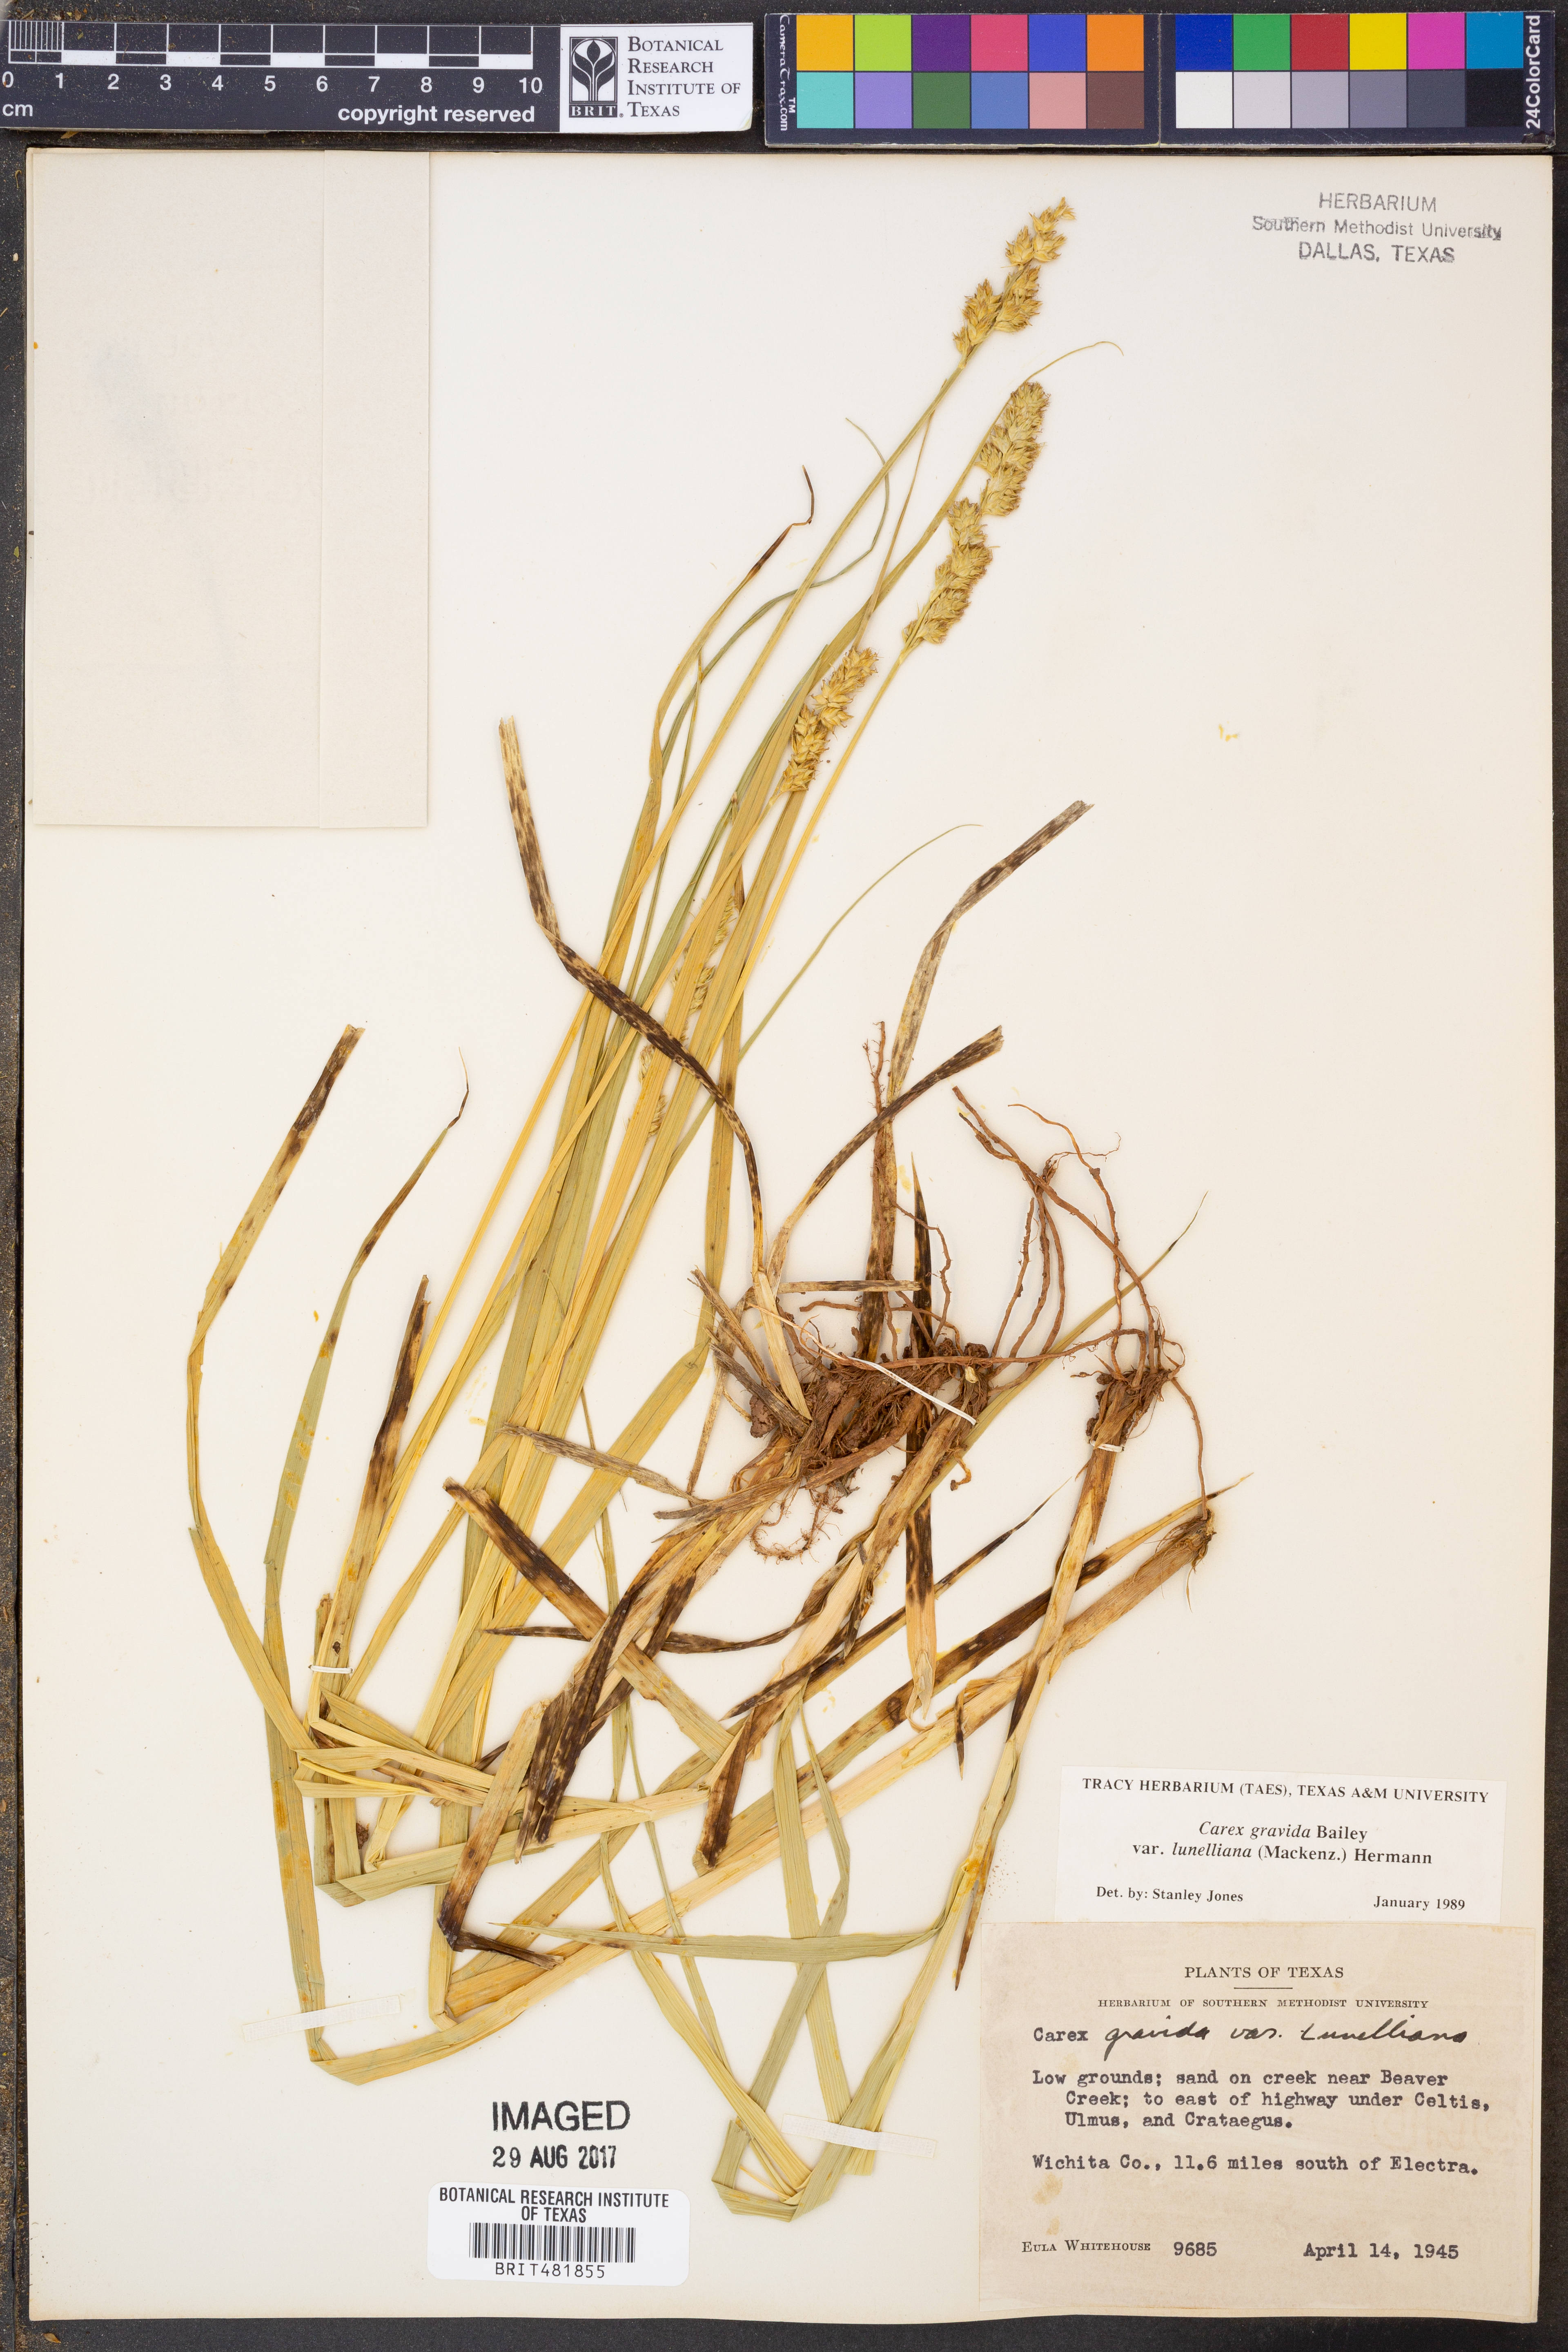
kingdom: Plantae
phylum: Tracheophyta
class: Liliopsida
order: Poales
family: Cyperaceae
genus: Carex
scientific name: Carex gravida
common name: Heavy sedge
